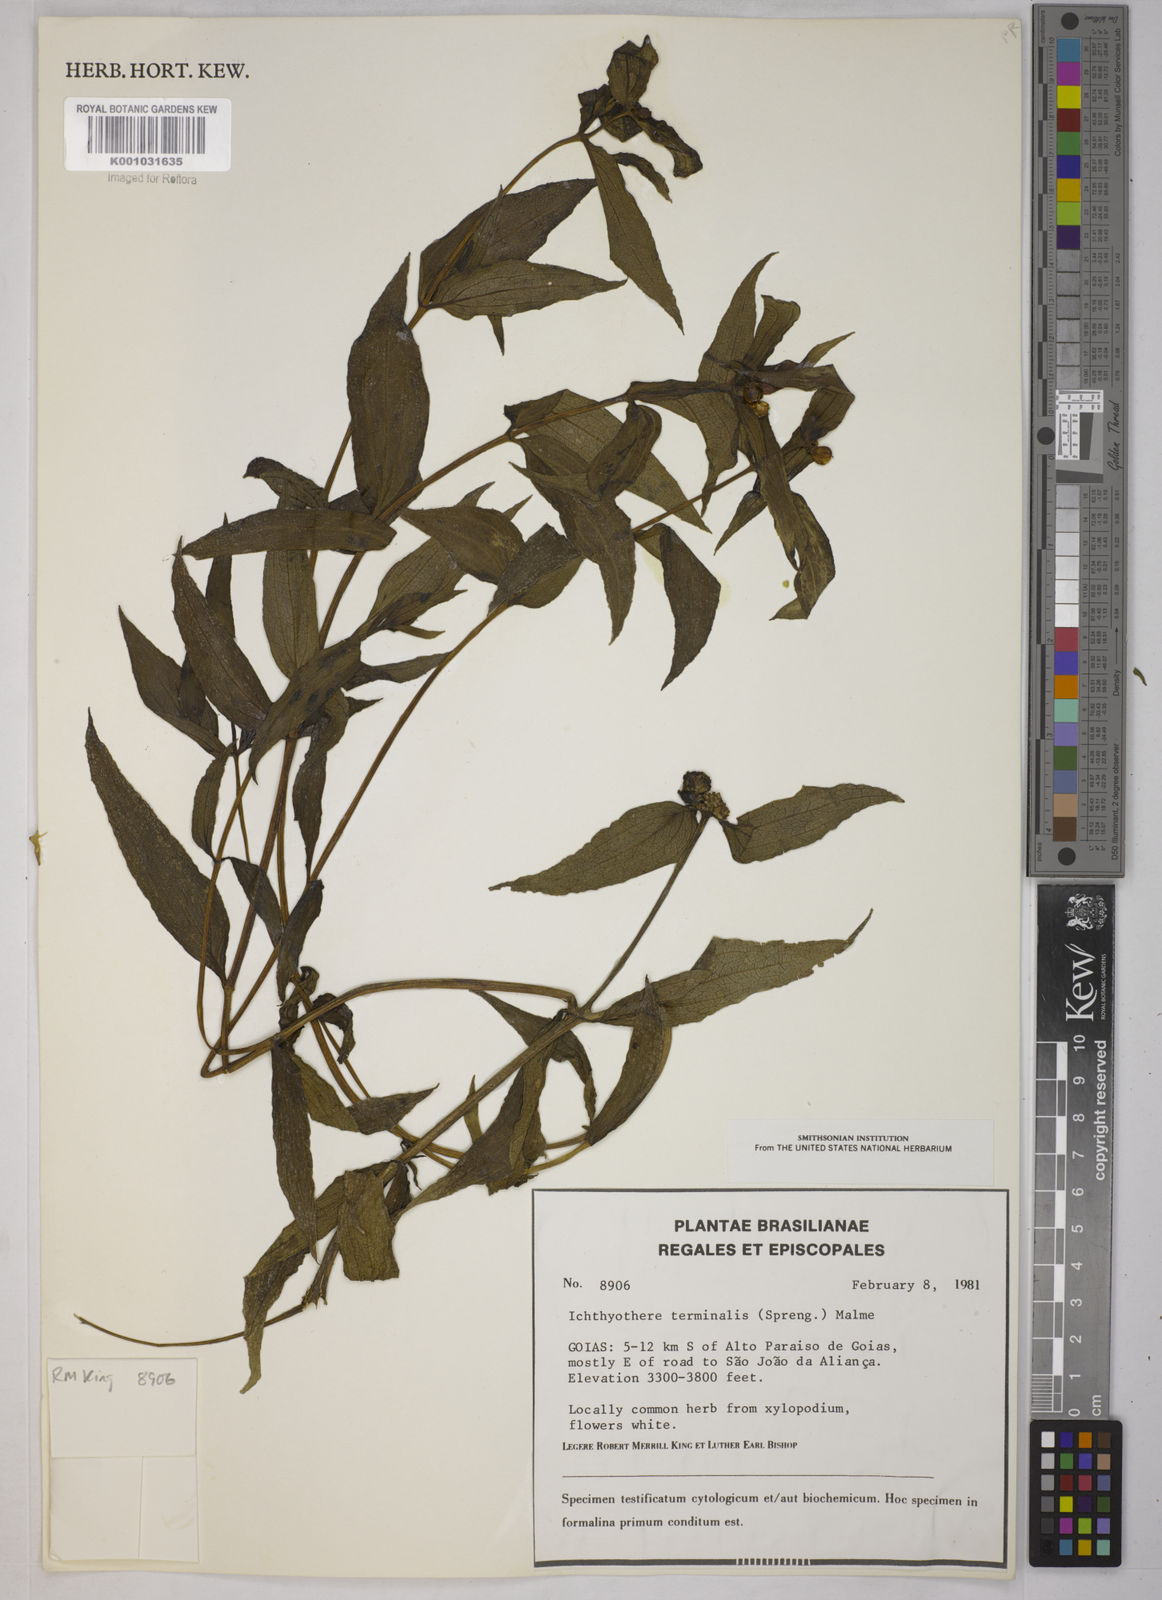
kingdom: Plantae
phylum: Tracheophyta
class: Magnoliopsida
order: Asterales
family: Asteraceae
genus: Ichthyothere
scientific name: Ichthyothere terminalis
